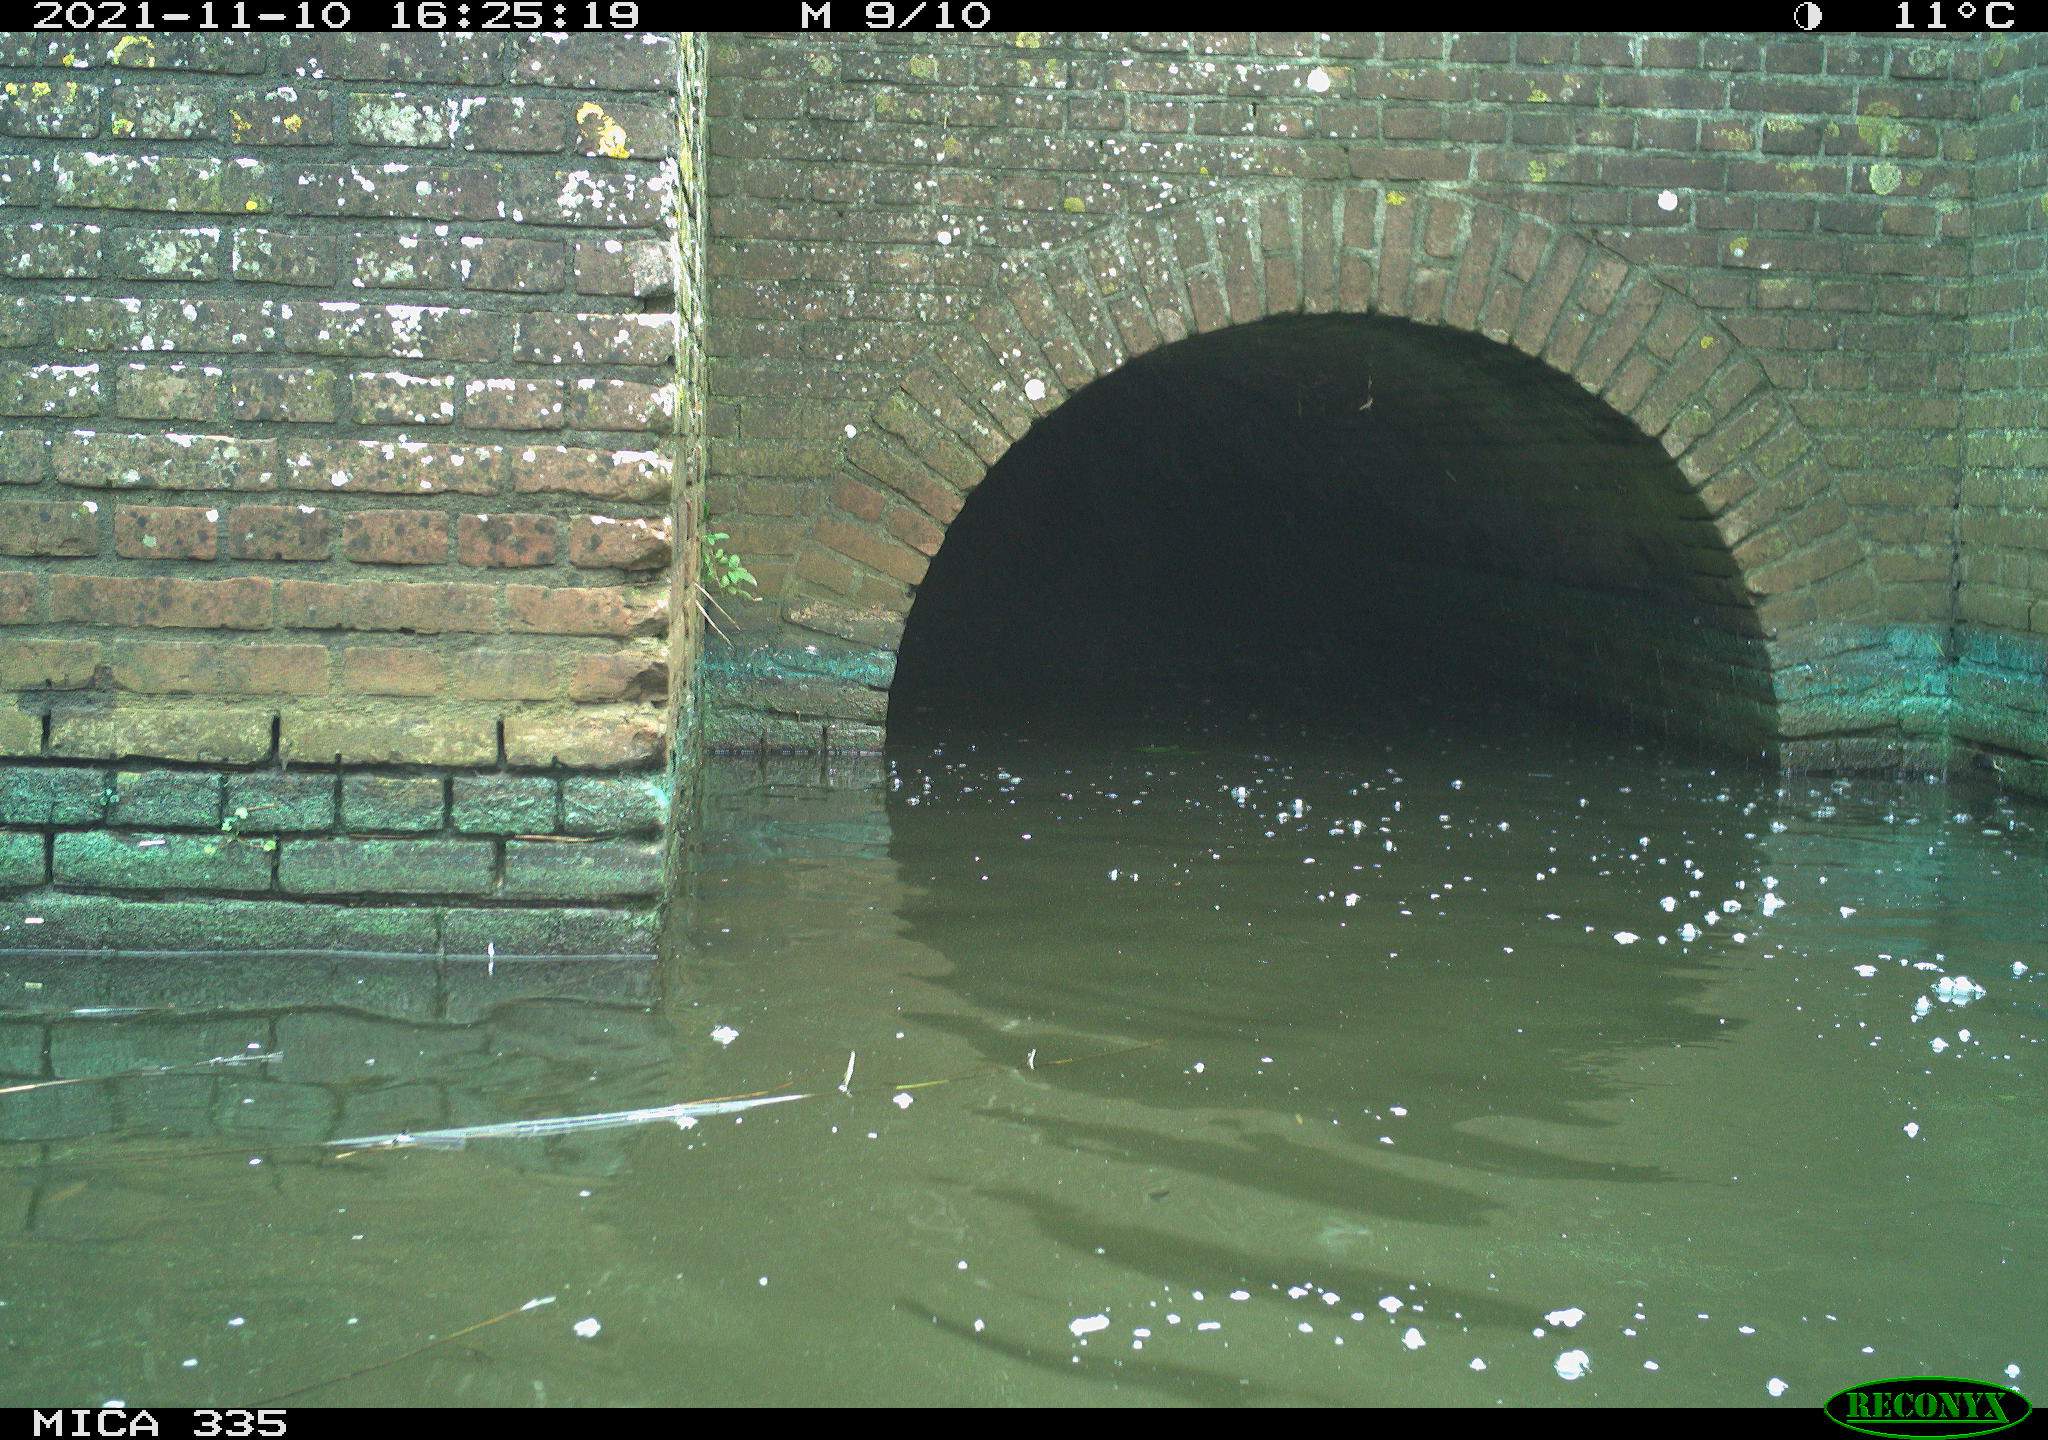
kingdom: Animalia
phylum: Chordata
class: Aves
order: Suliformes
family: Phalacrocoracidae
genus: Phalacrocorax
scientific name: Phalacrocorax carbo
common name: Great cormorant
